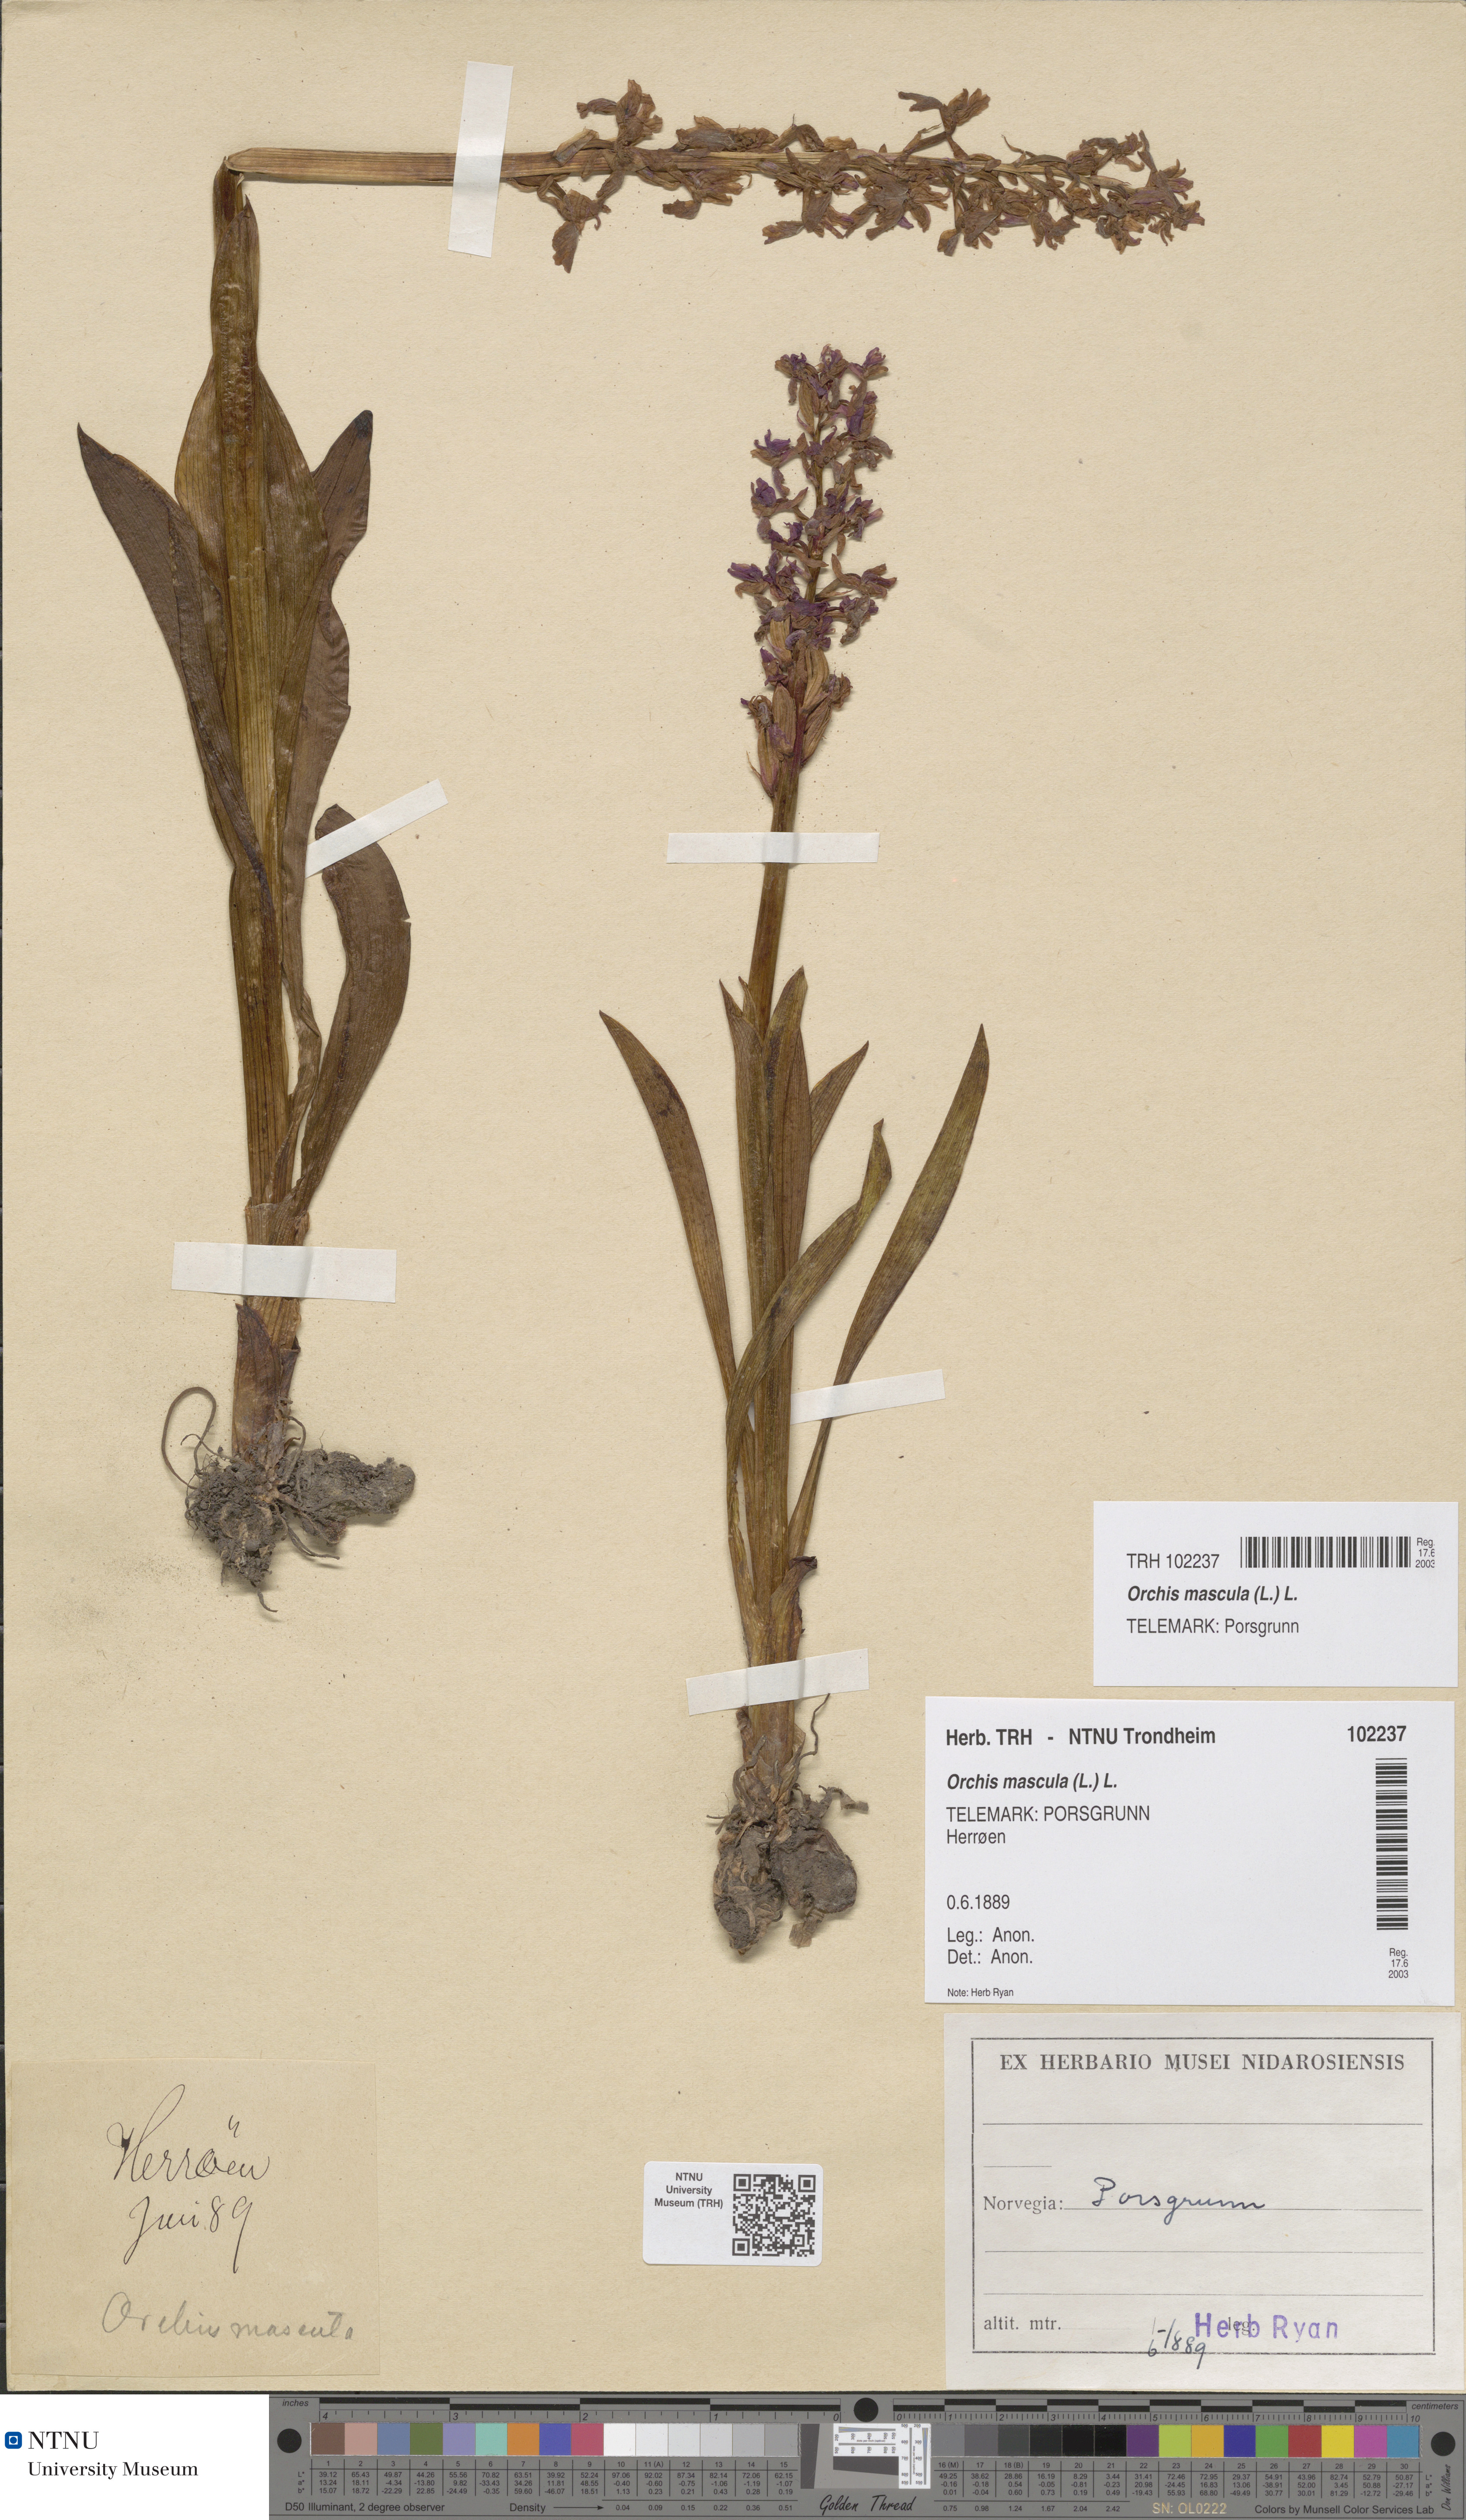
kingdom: Plantae
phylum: Tracheophyta
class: Liliopsida
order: Asparagales
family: Orchidaceae
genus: Orchis
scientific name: Orchis mascula
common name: Early-purple orchid
